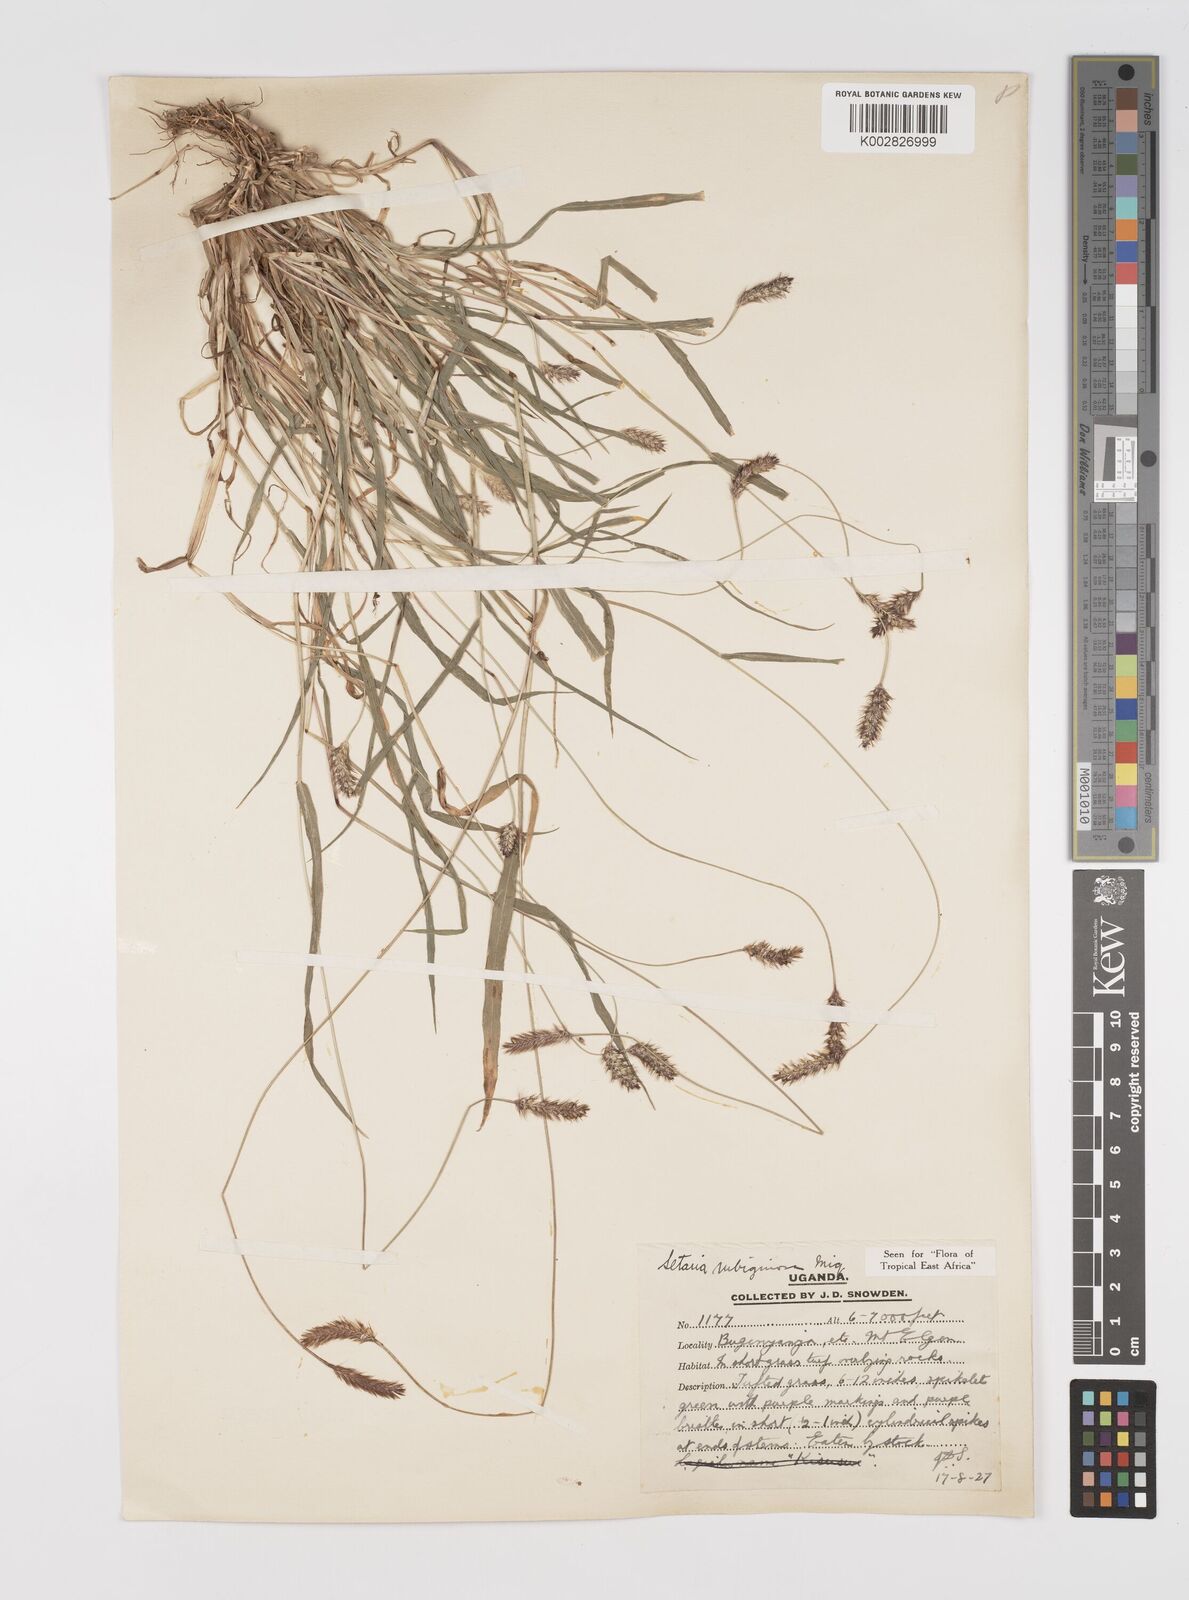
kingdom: Plantae
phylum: Tracheophyta
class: Liliopsida
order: Poales
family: Poaceae
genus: Setaria
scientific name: Setaria pumila
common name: Yellow bristle-grass
